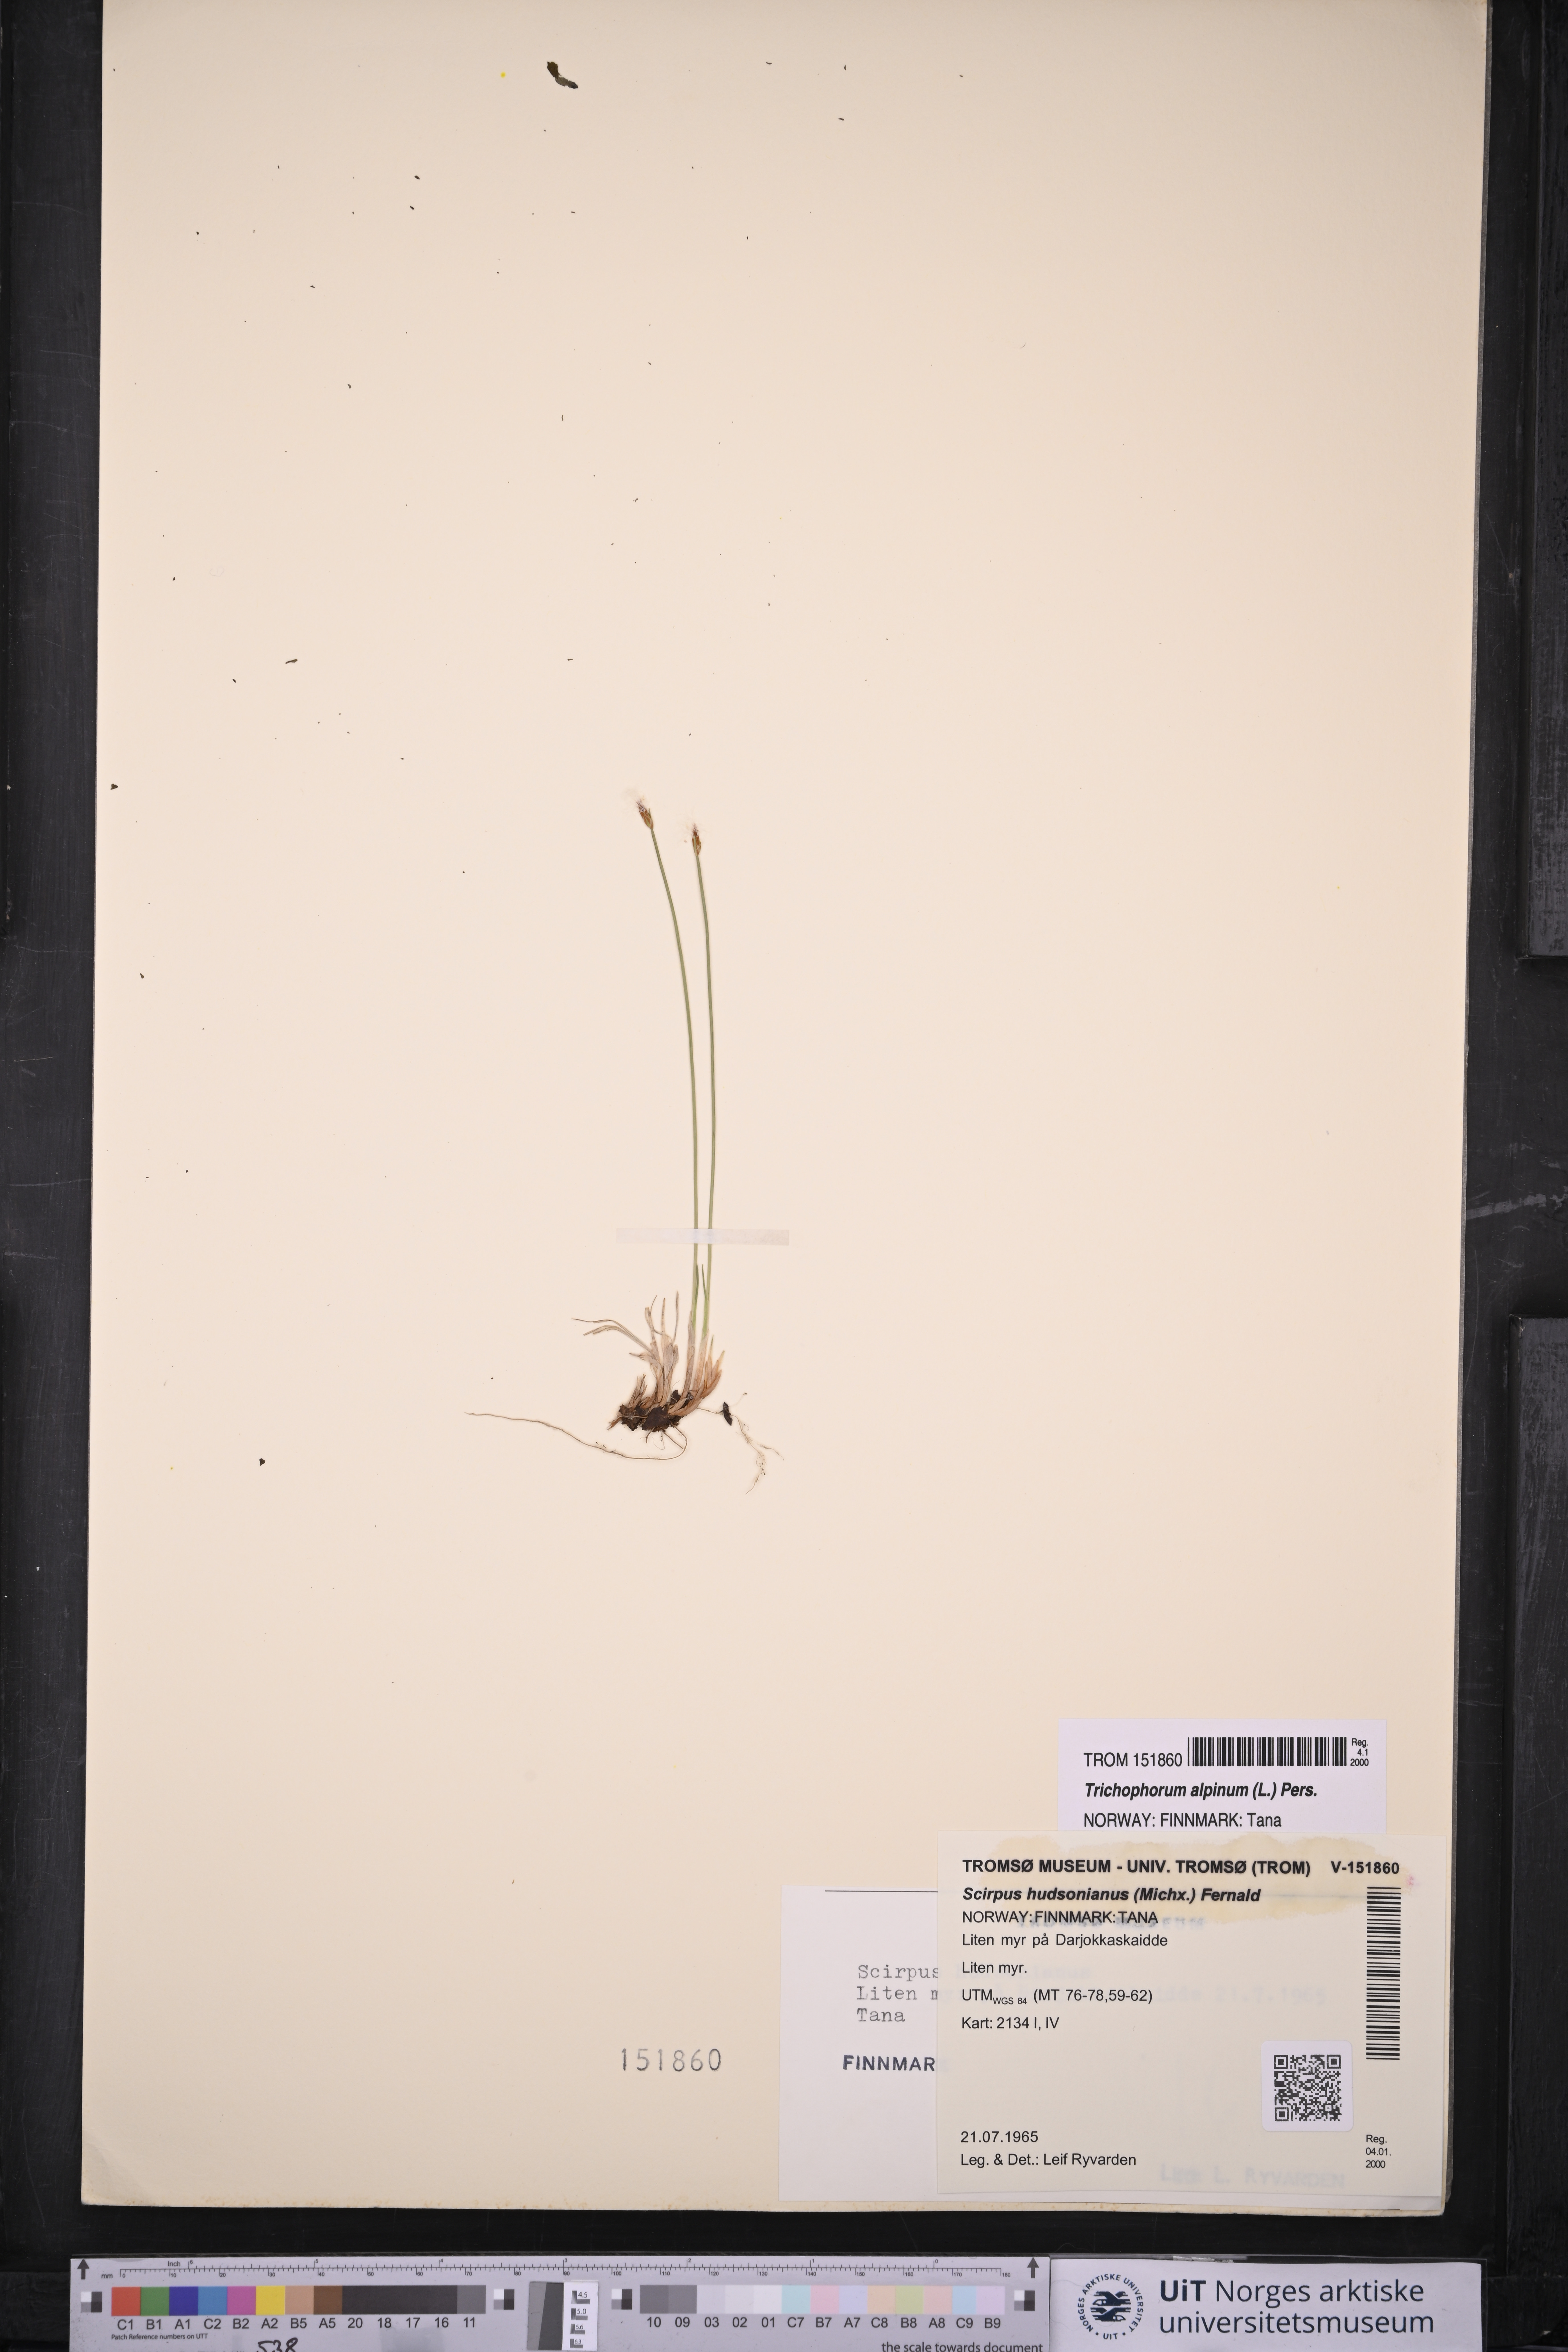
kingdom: Plantae
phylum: Tracheophyta
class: Liliopsida
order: Poales
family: Cyperaceae
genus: Trichophorum
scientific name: Trichophorum alpinum
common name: Alpine bulrush
